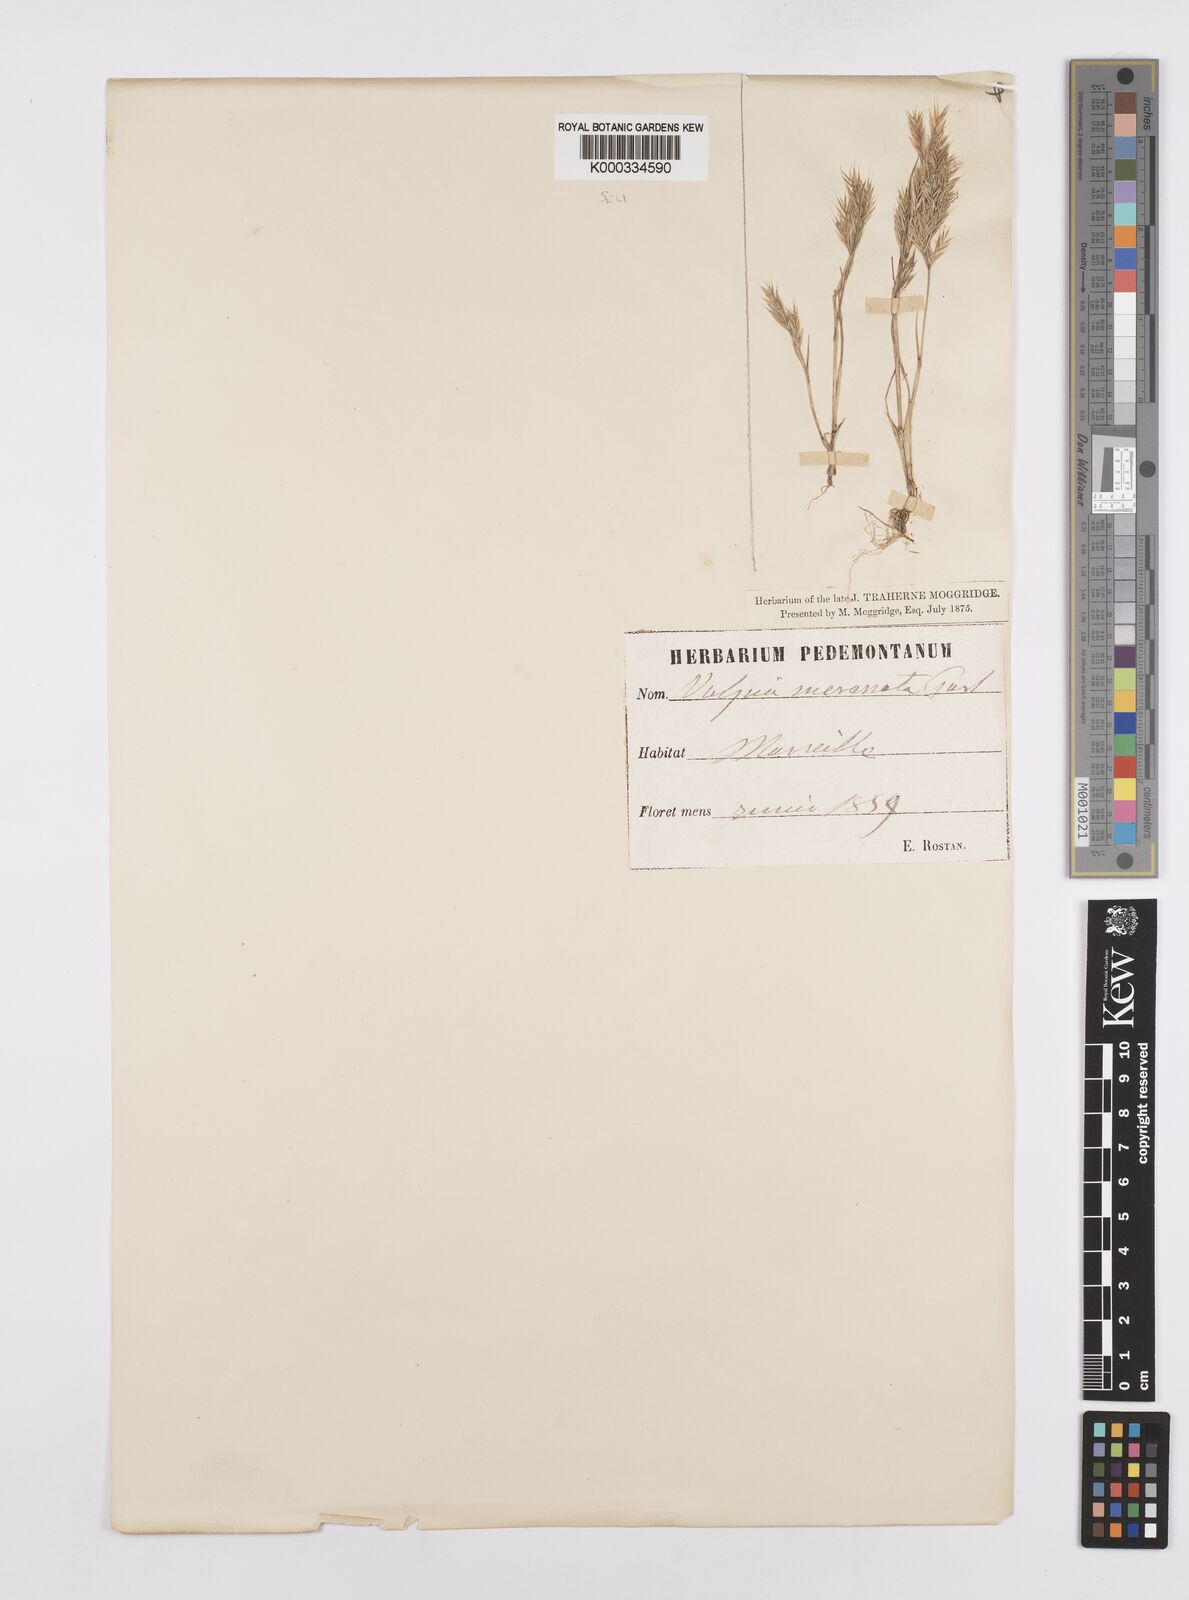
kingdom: Plantae
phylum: Tracheophyta
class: Liliopsida
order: Poales
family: Poaceae
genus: Vulpiella
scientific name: Vulpiella stipoides
